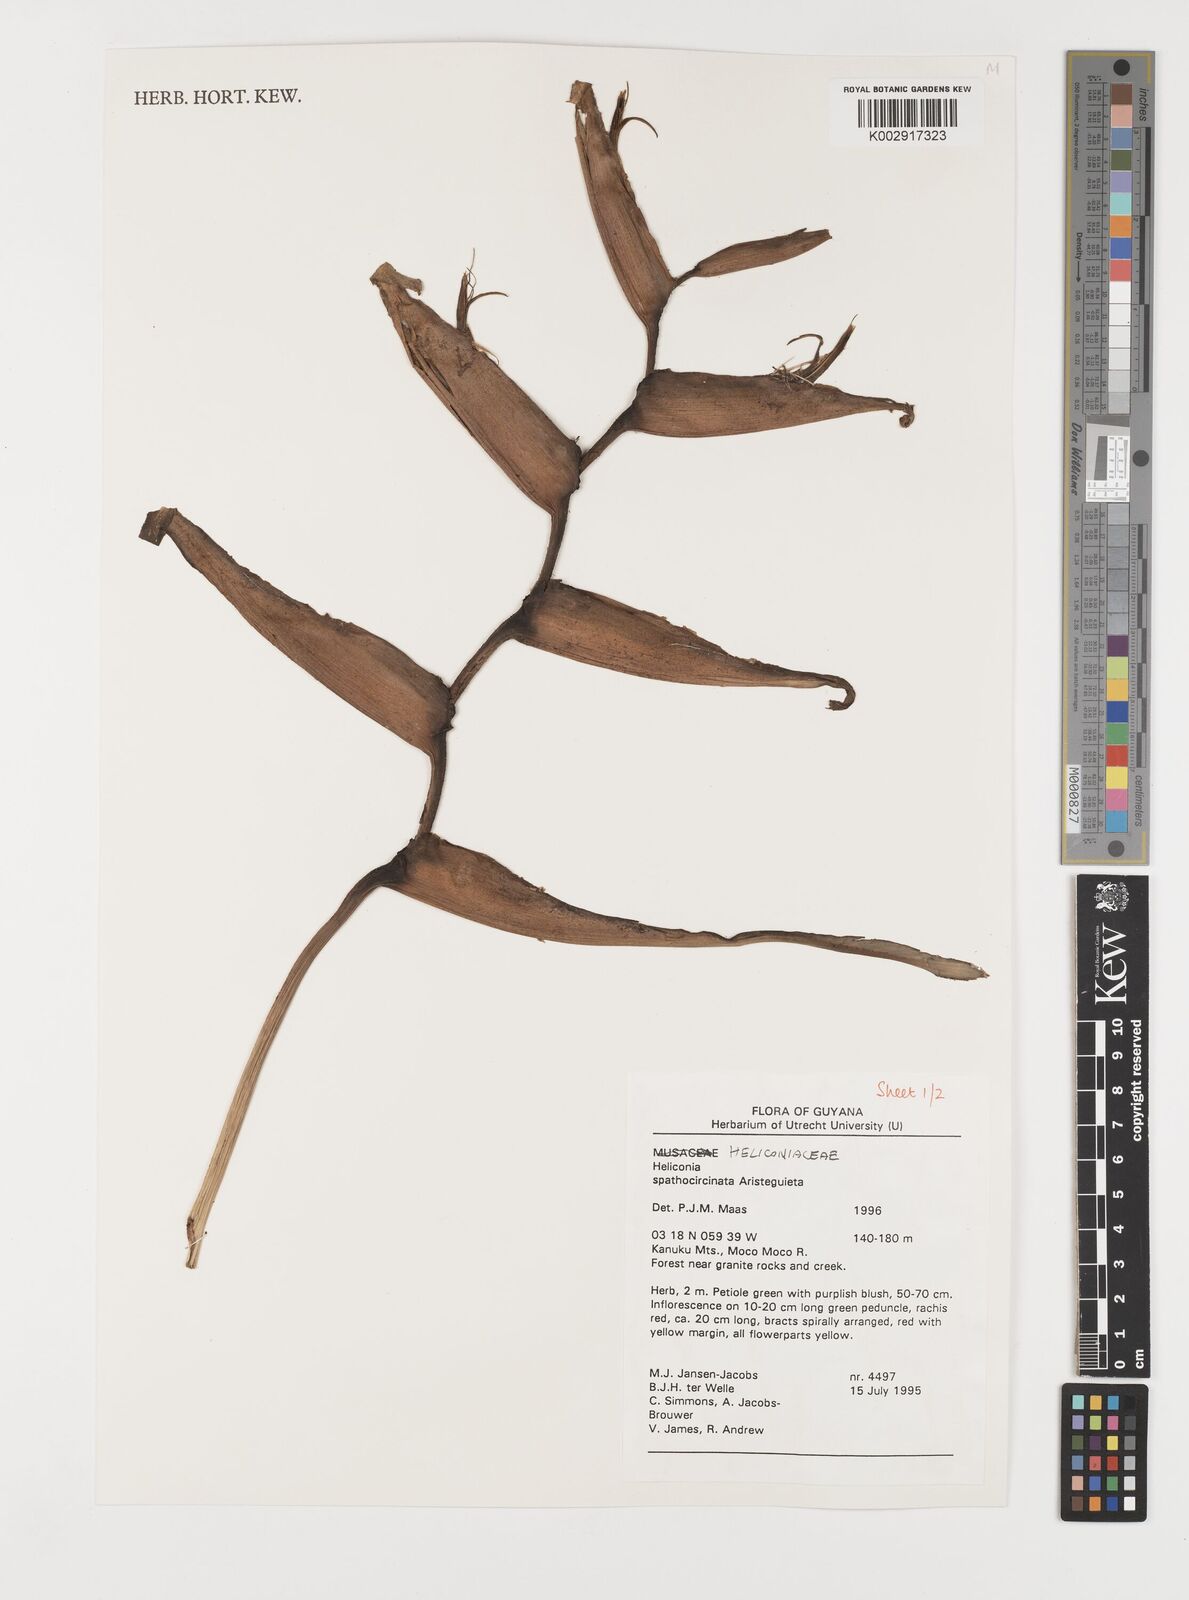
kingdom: Plantae
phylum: Tracheophyta
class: Liliopsida
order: Zingiberales
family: Heliconiaceae
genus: Heliconia
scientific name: Heliconia spathocircinata
